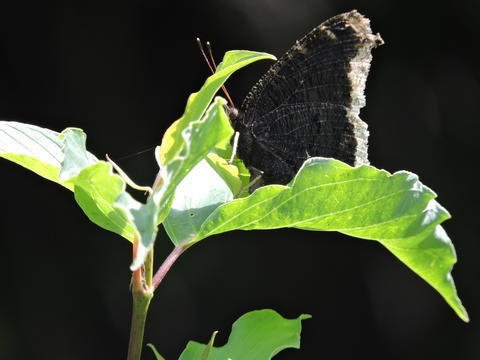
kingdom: Animalia
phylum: Arthropoda
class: Insecta
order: Lepidoptera
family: Nymphalidae
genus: Nymphalis
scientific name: Nymphalis antiopa
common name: Mourning Cloak
